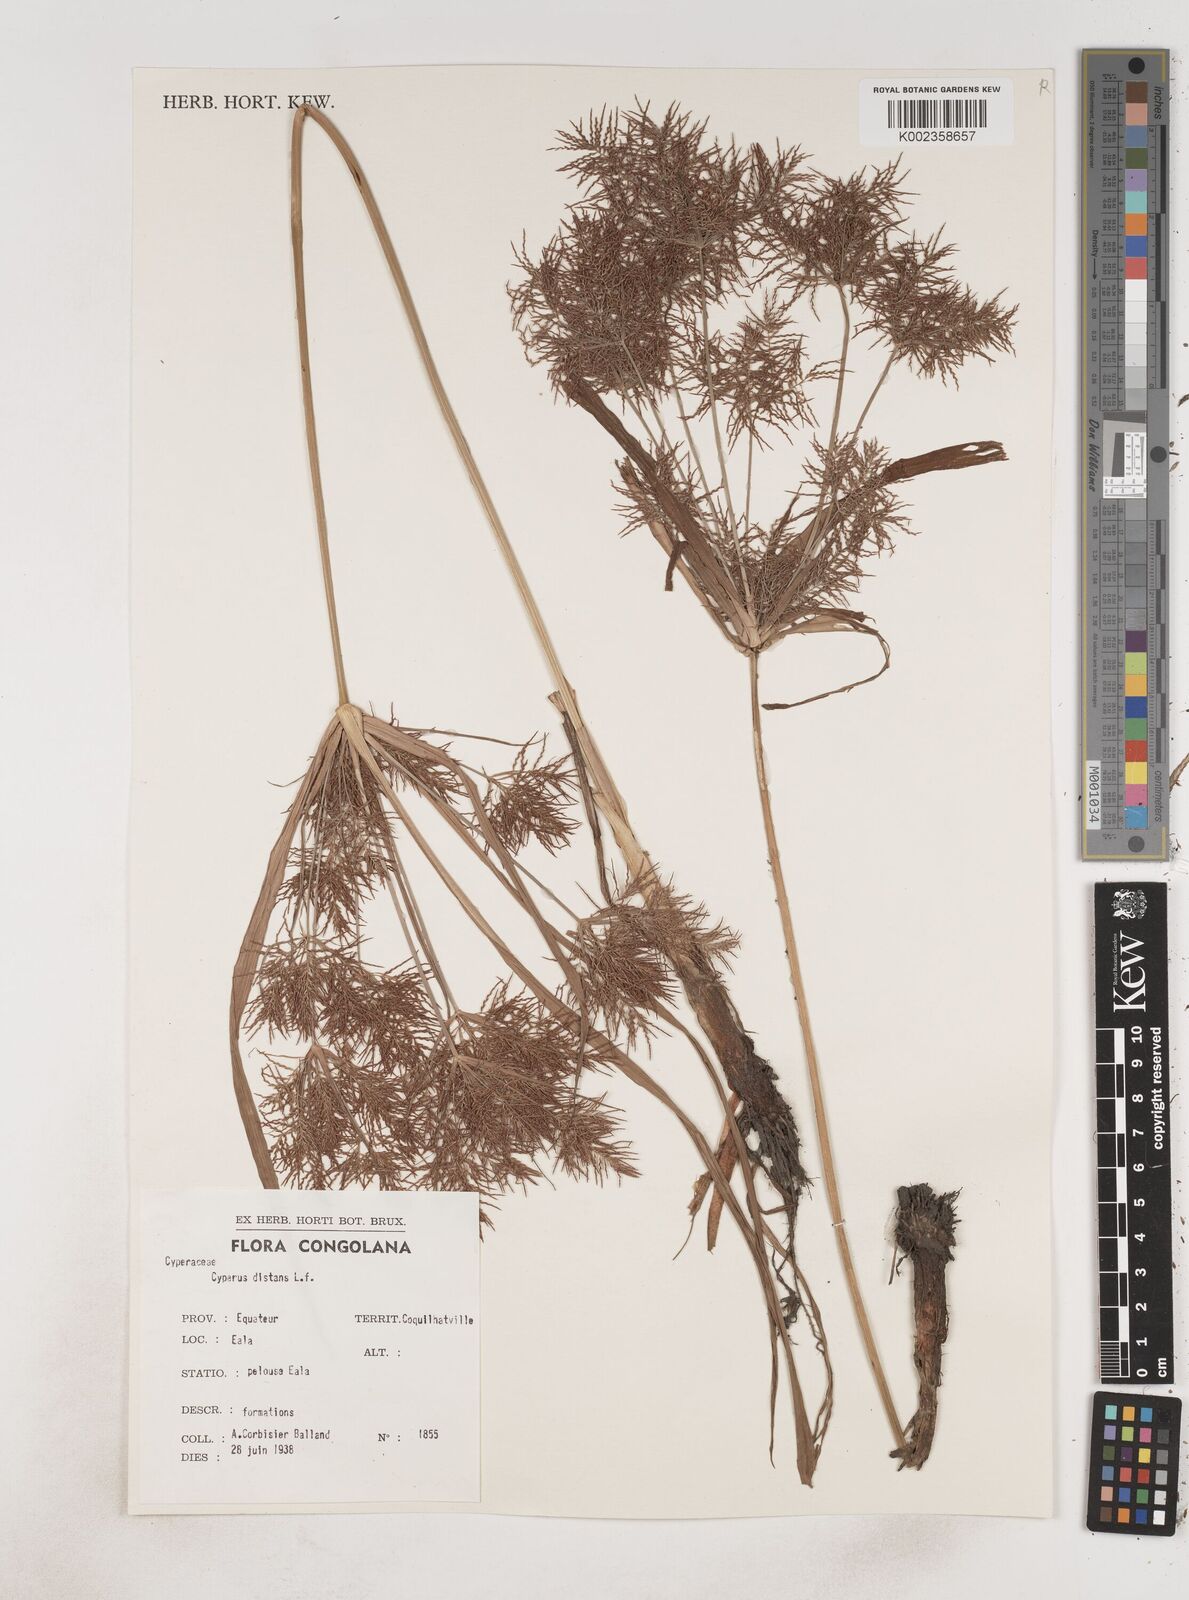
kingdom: Plantae
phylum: Tracheophyta
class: Liliopsida
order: Poales
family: Cyperaceae
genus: Cyperus
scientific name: Cyperus distans
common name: Slender cyperus
